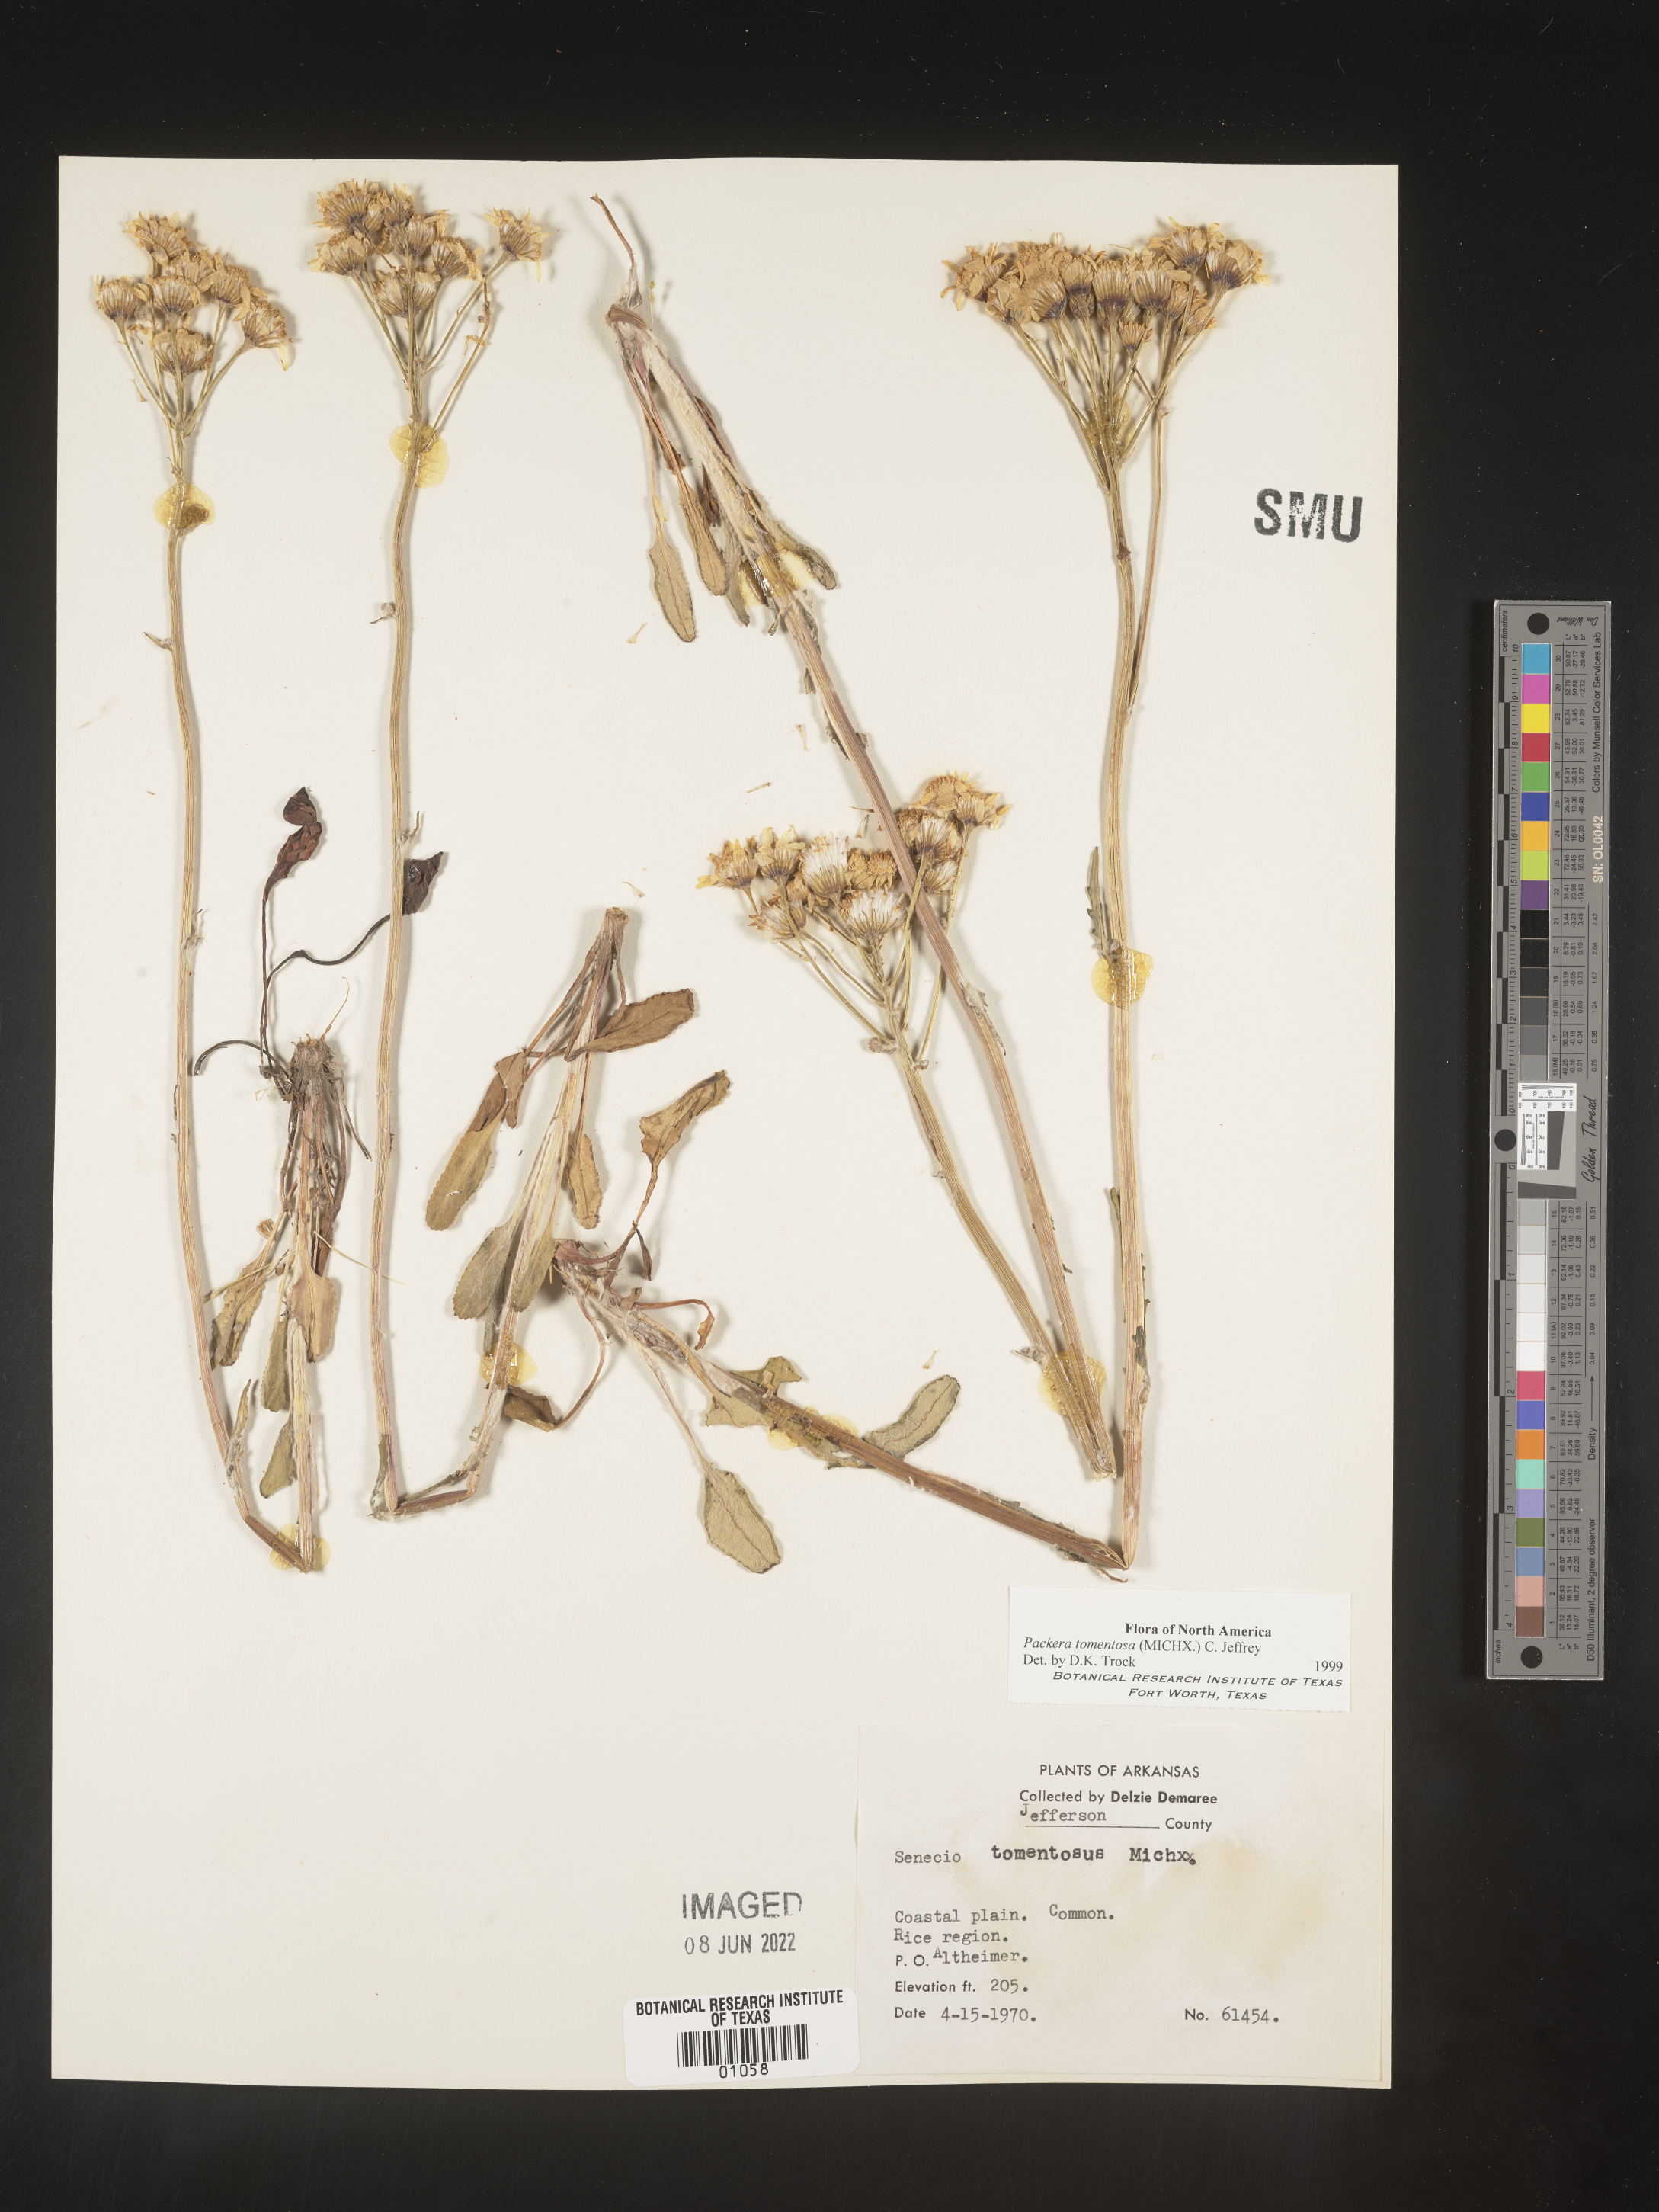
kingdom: Plantae
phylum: Tracheophyta
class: Magnoliopsida
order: Asterales
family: Asteraceae
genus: Packera
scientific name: Packera dubia
